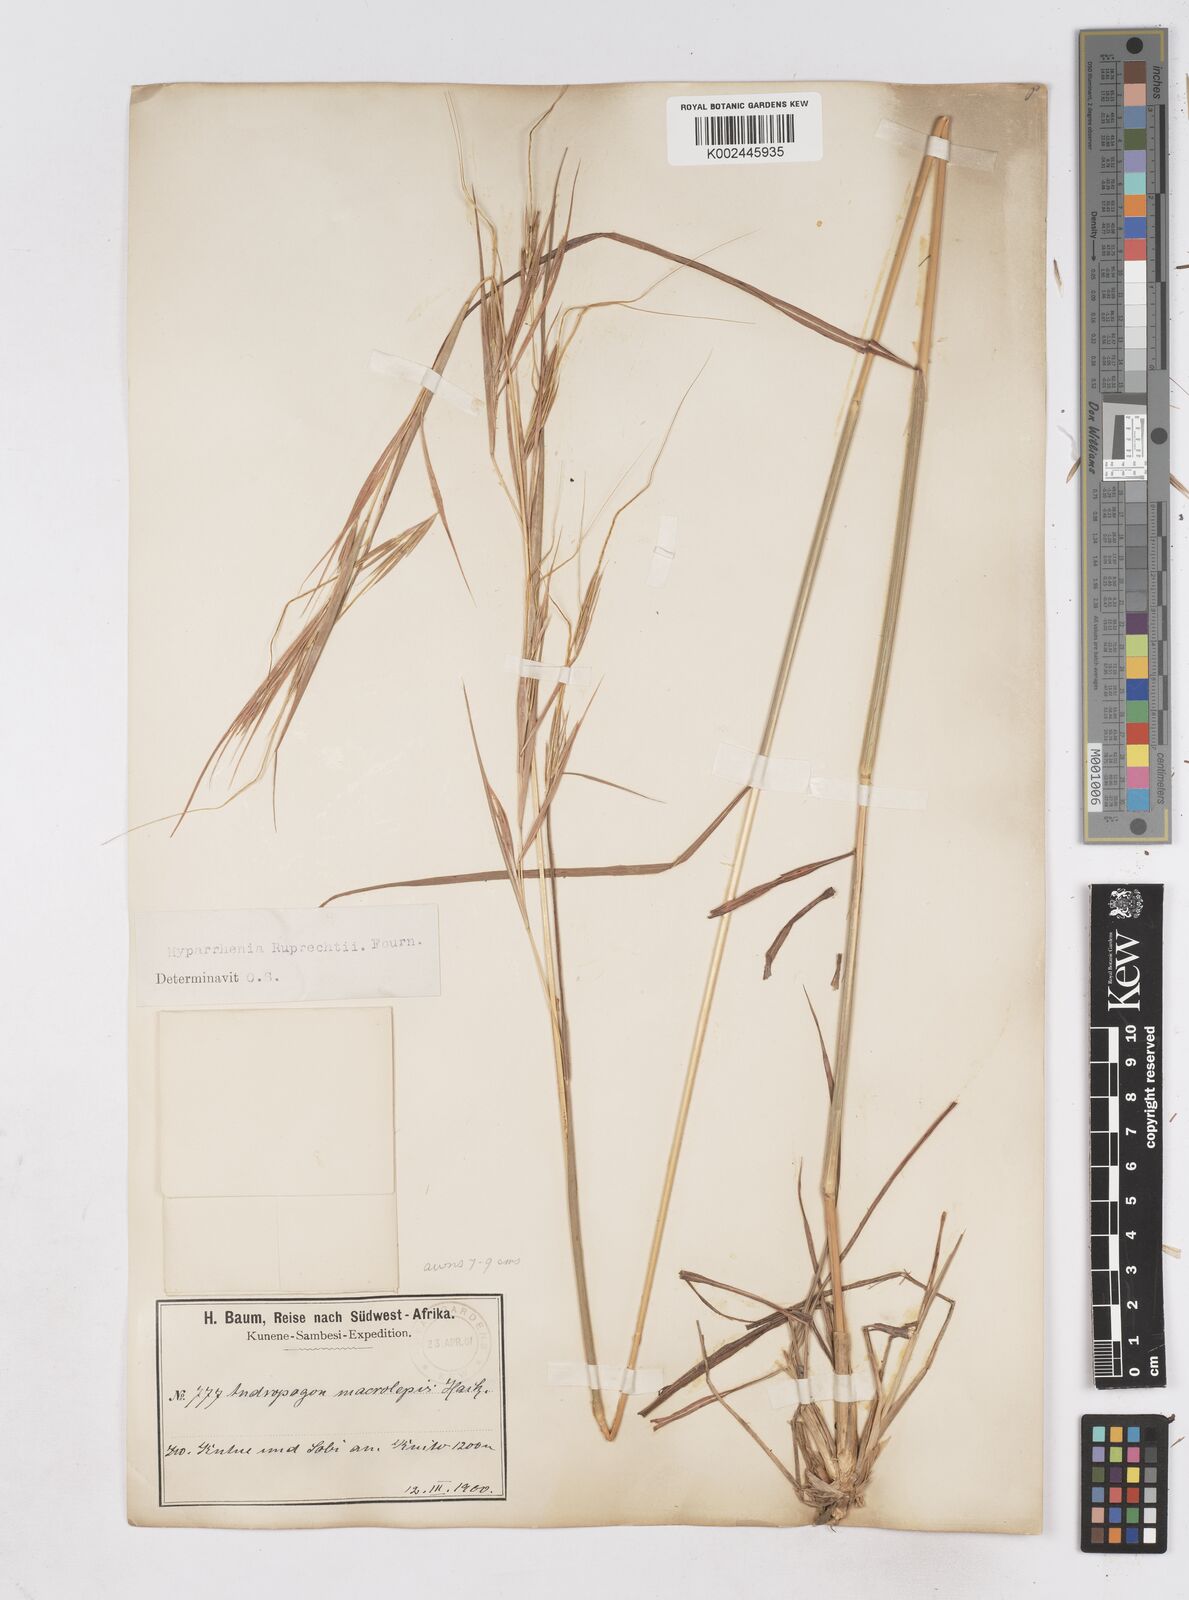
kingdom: Plantae
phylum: Tracheophyta
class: Liliopsida
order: Poales
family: Poaceae
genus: Hyperthelia
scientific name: Hyperthelia dissoluta
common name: Yellow thatching grass
